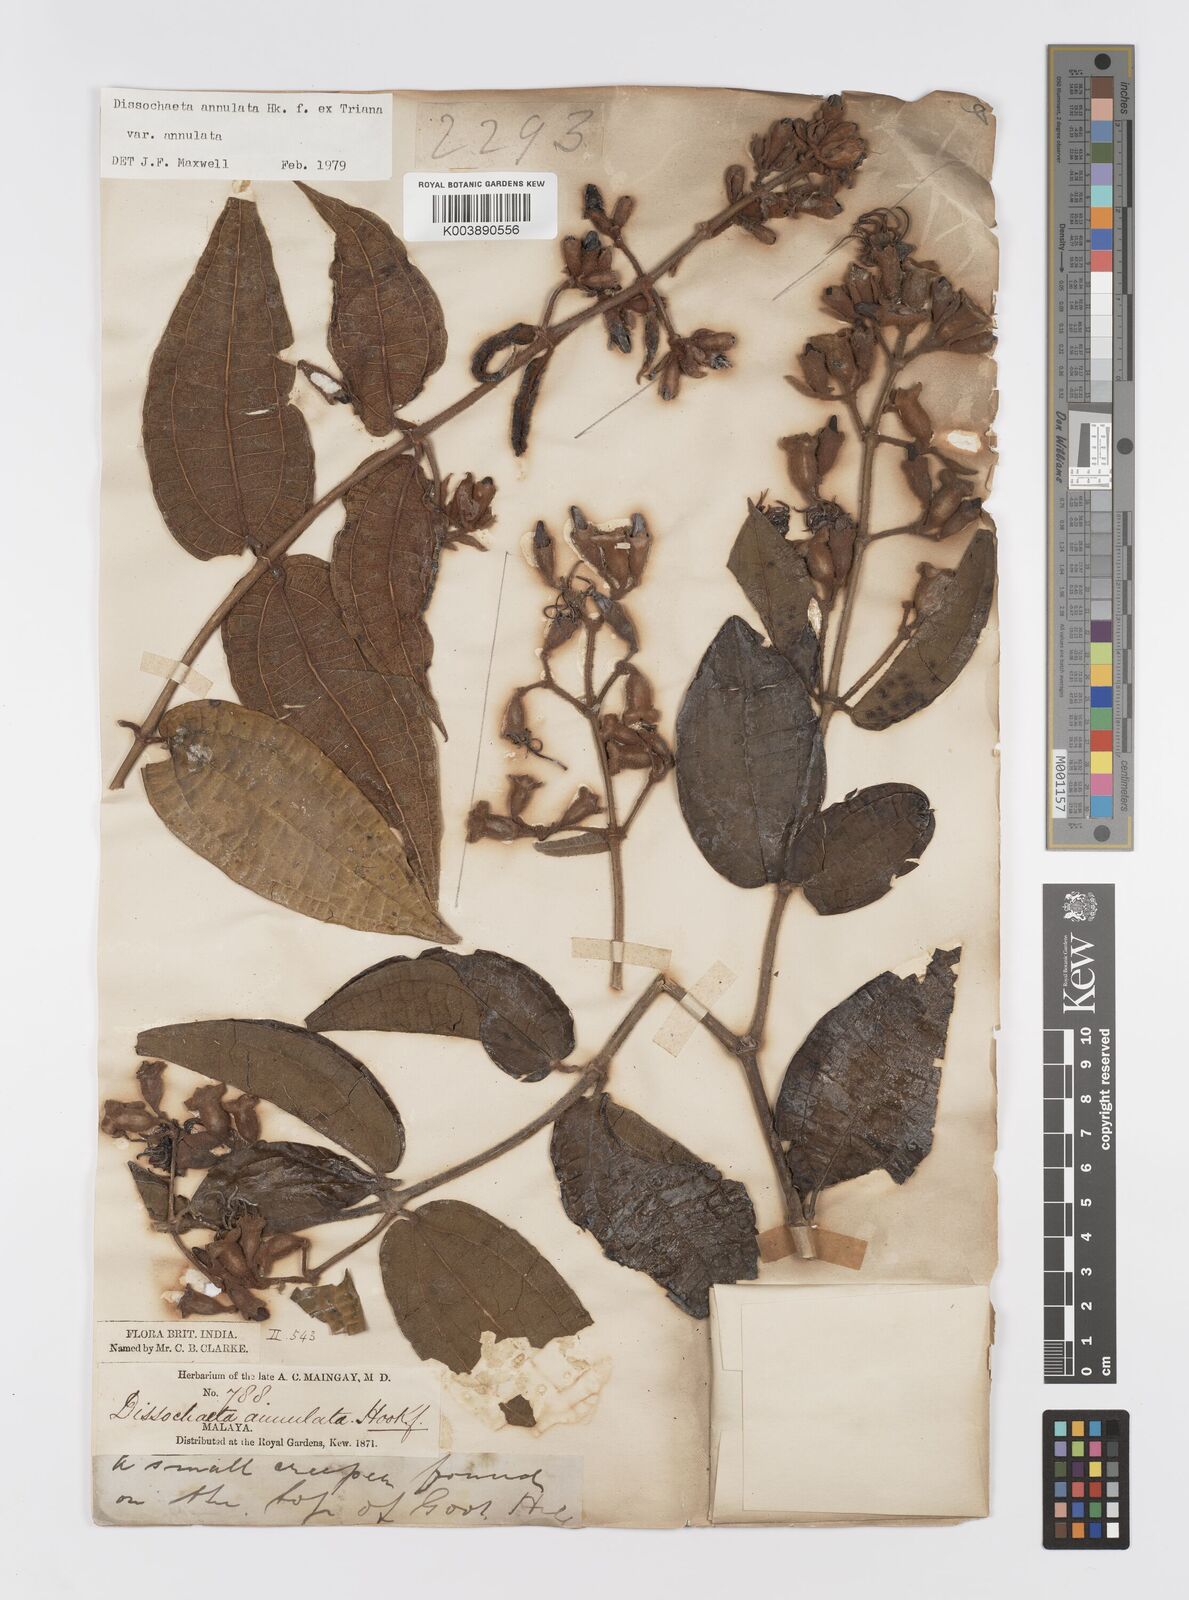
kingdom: Plantae
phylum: Tracheophyta
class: Magnoliopsida
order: Myrtales
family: Melastomataceae
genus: Dissochaeta
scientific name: Dissochaeta annulata
